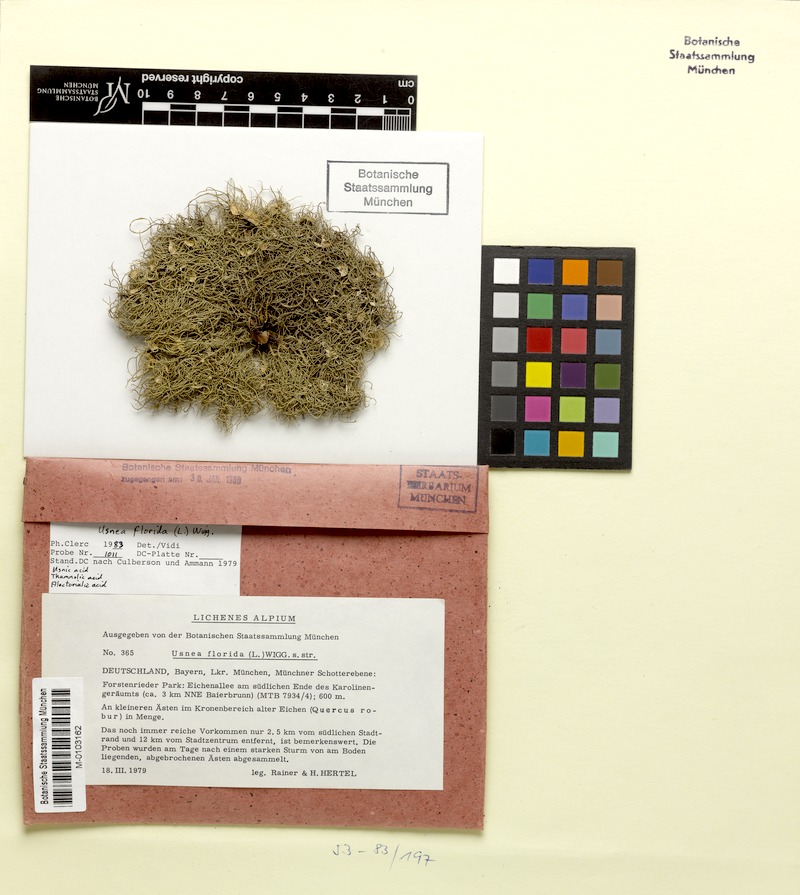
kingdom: Fungi
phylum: Ascomycota
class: Lecanoromycetes
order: Lecanorales
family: Parmeliaceae
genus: Usnea
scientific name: Usnea florida
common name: Witches' whiskers lichen
